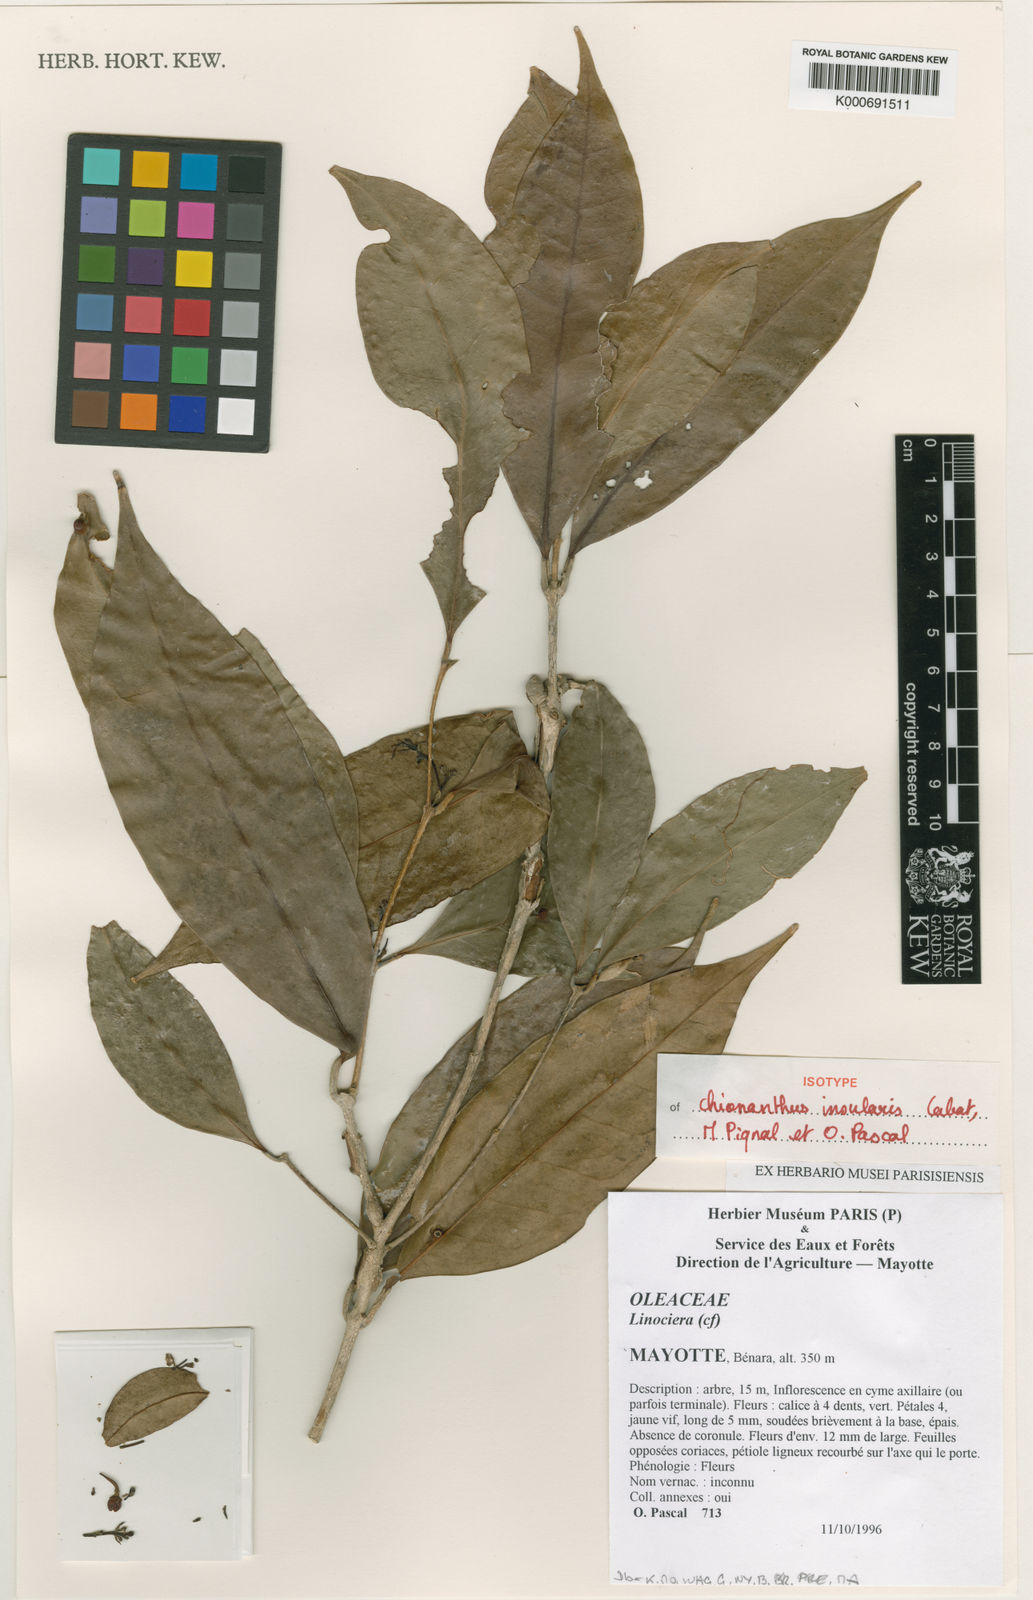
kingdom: Plantae
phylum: Tracheophyta
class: Magnoliopsida
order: Lamiales
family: Oleaceae
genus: Noronhia
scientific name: Noronhia insularis
